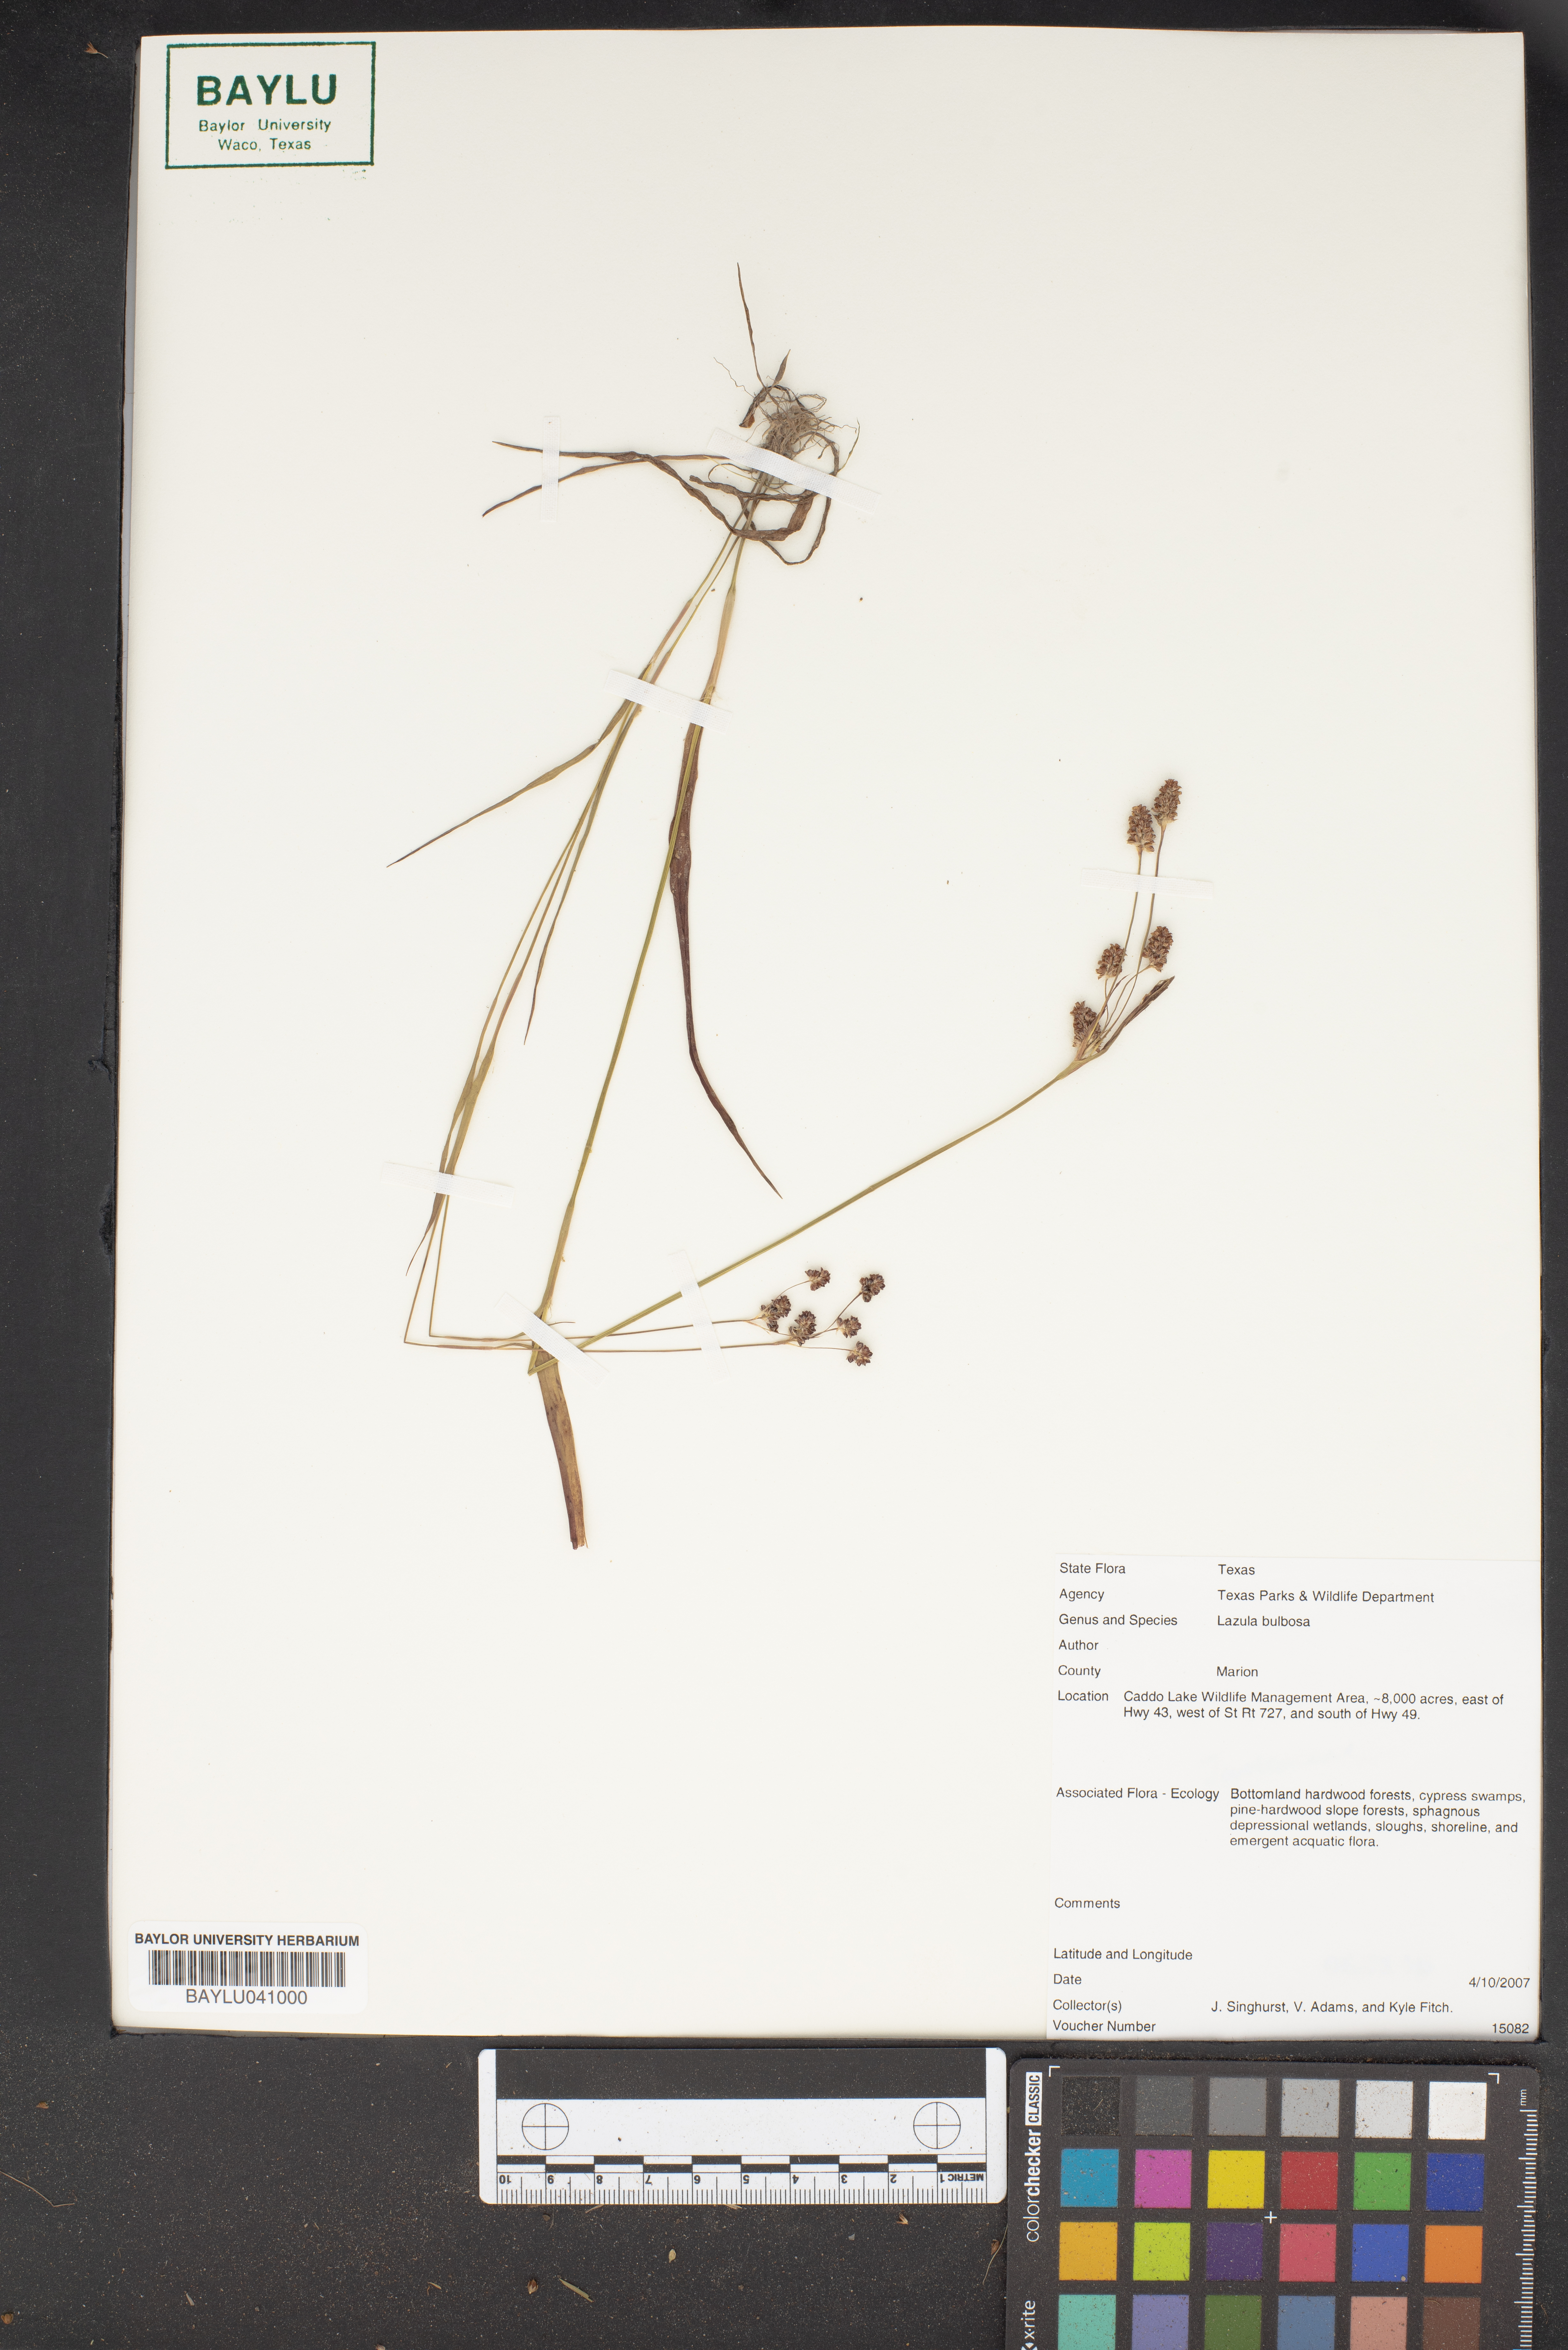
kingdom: Plantae
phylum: Tracheophyta
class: Liliopsida
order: Poales
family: Juncaceae
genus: Luzula
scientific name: Luzula bulbosa
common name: Bulbous woodrush
